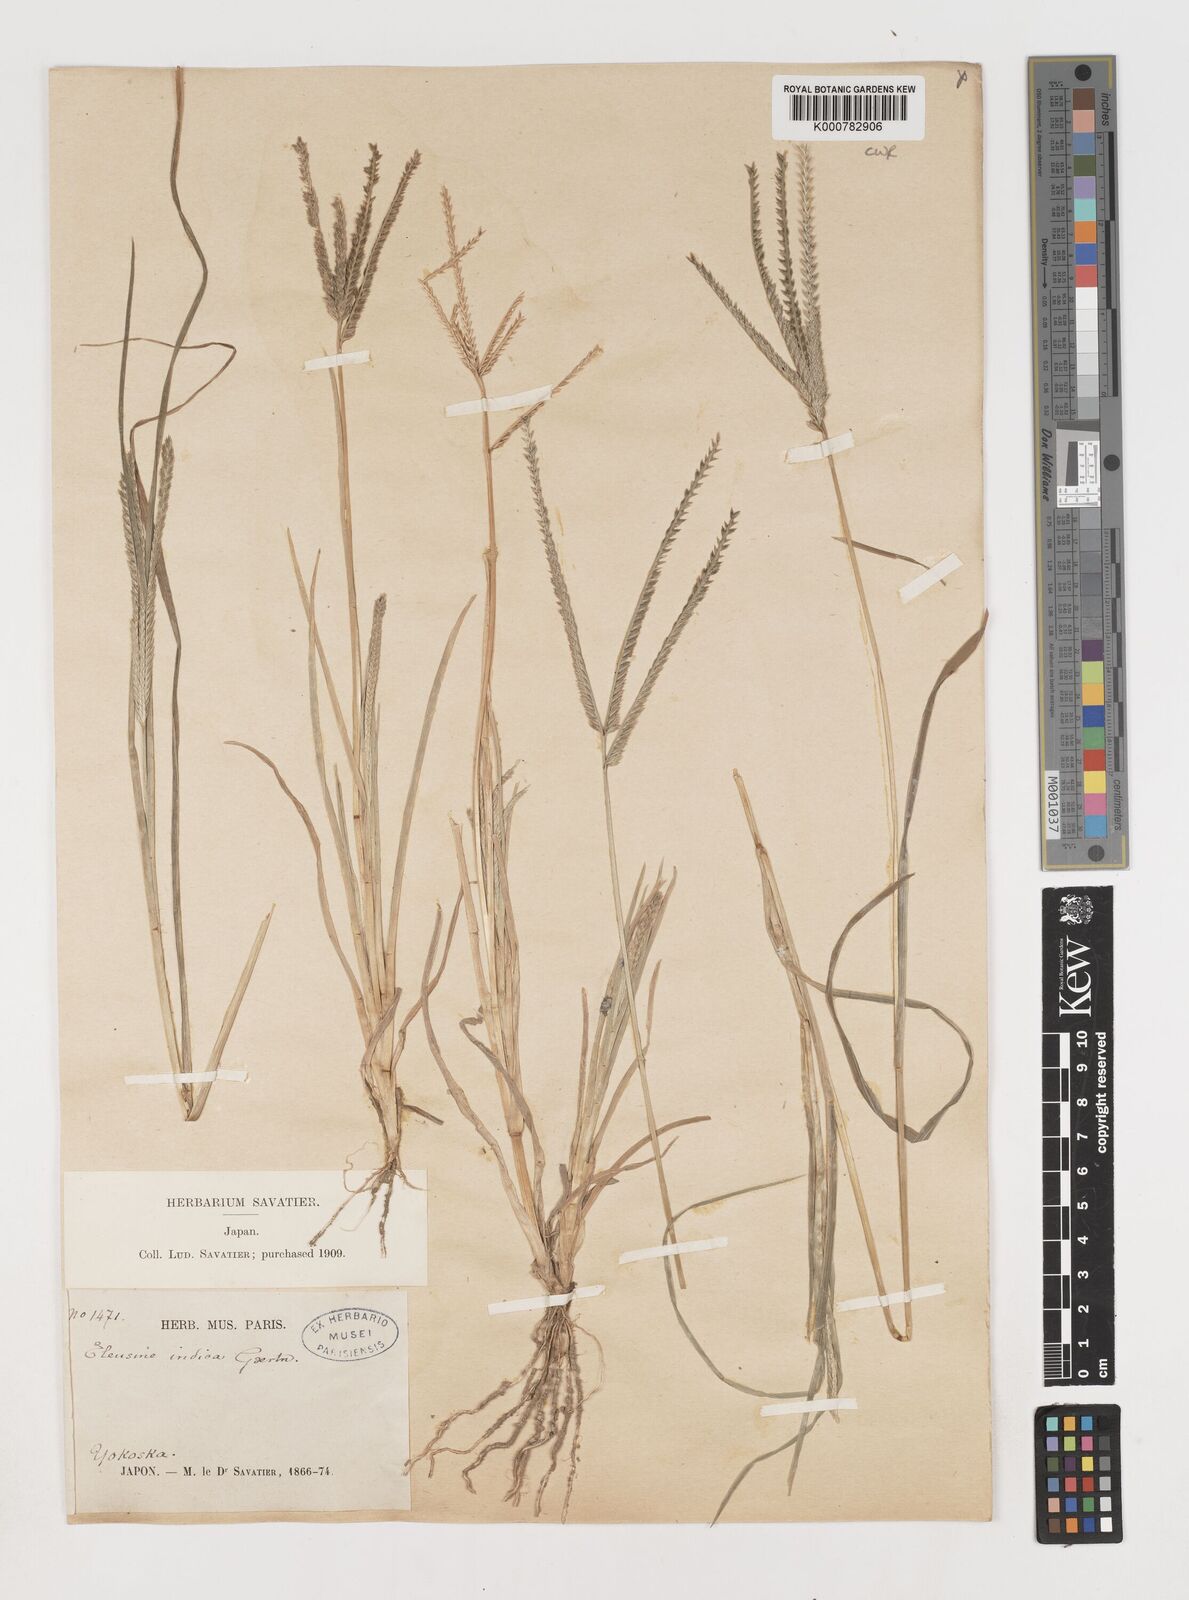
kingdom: Plantae
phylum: Tracheophyta
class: Liliopsida
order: Poales
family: Poaceae
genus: Eleusine
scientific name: Eleusine indica
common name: Yard-grass
